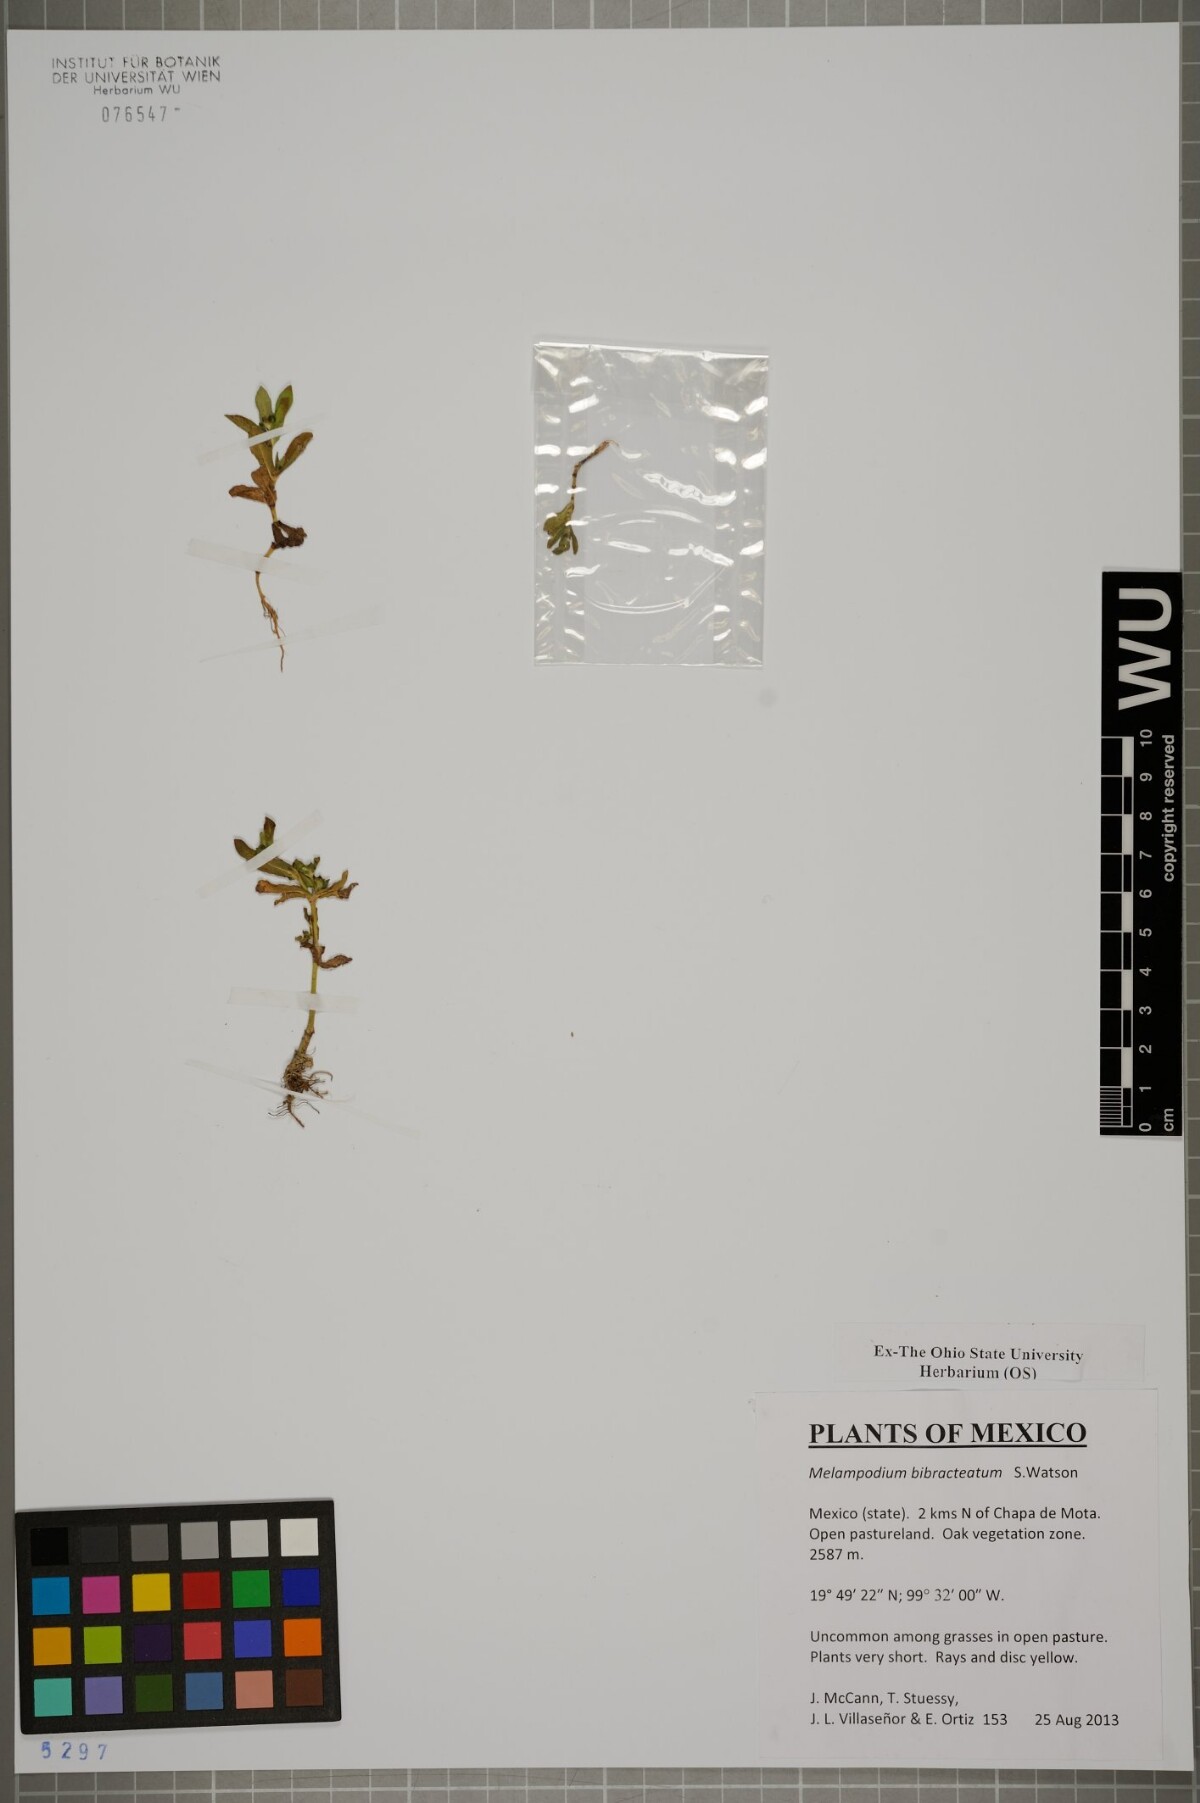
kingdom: Plantae
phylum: Tracheophyta
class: Magnoliopsida
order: Asterales
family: Asteraceae
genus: Melampodium
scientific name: Melampodium bibracteatum
